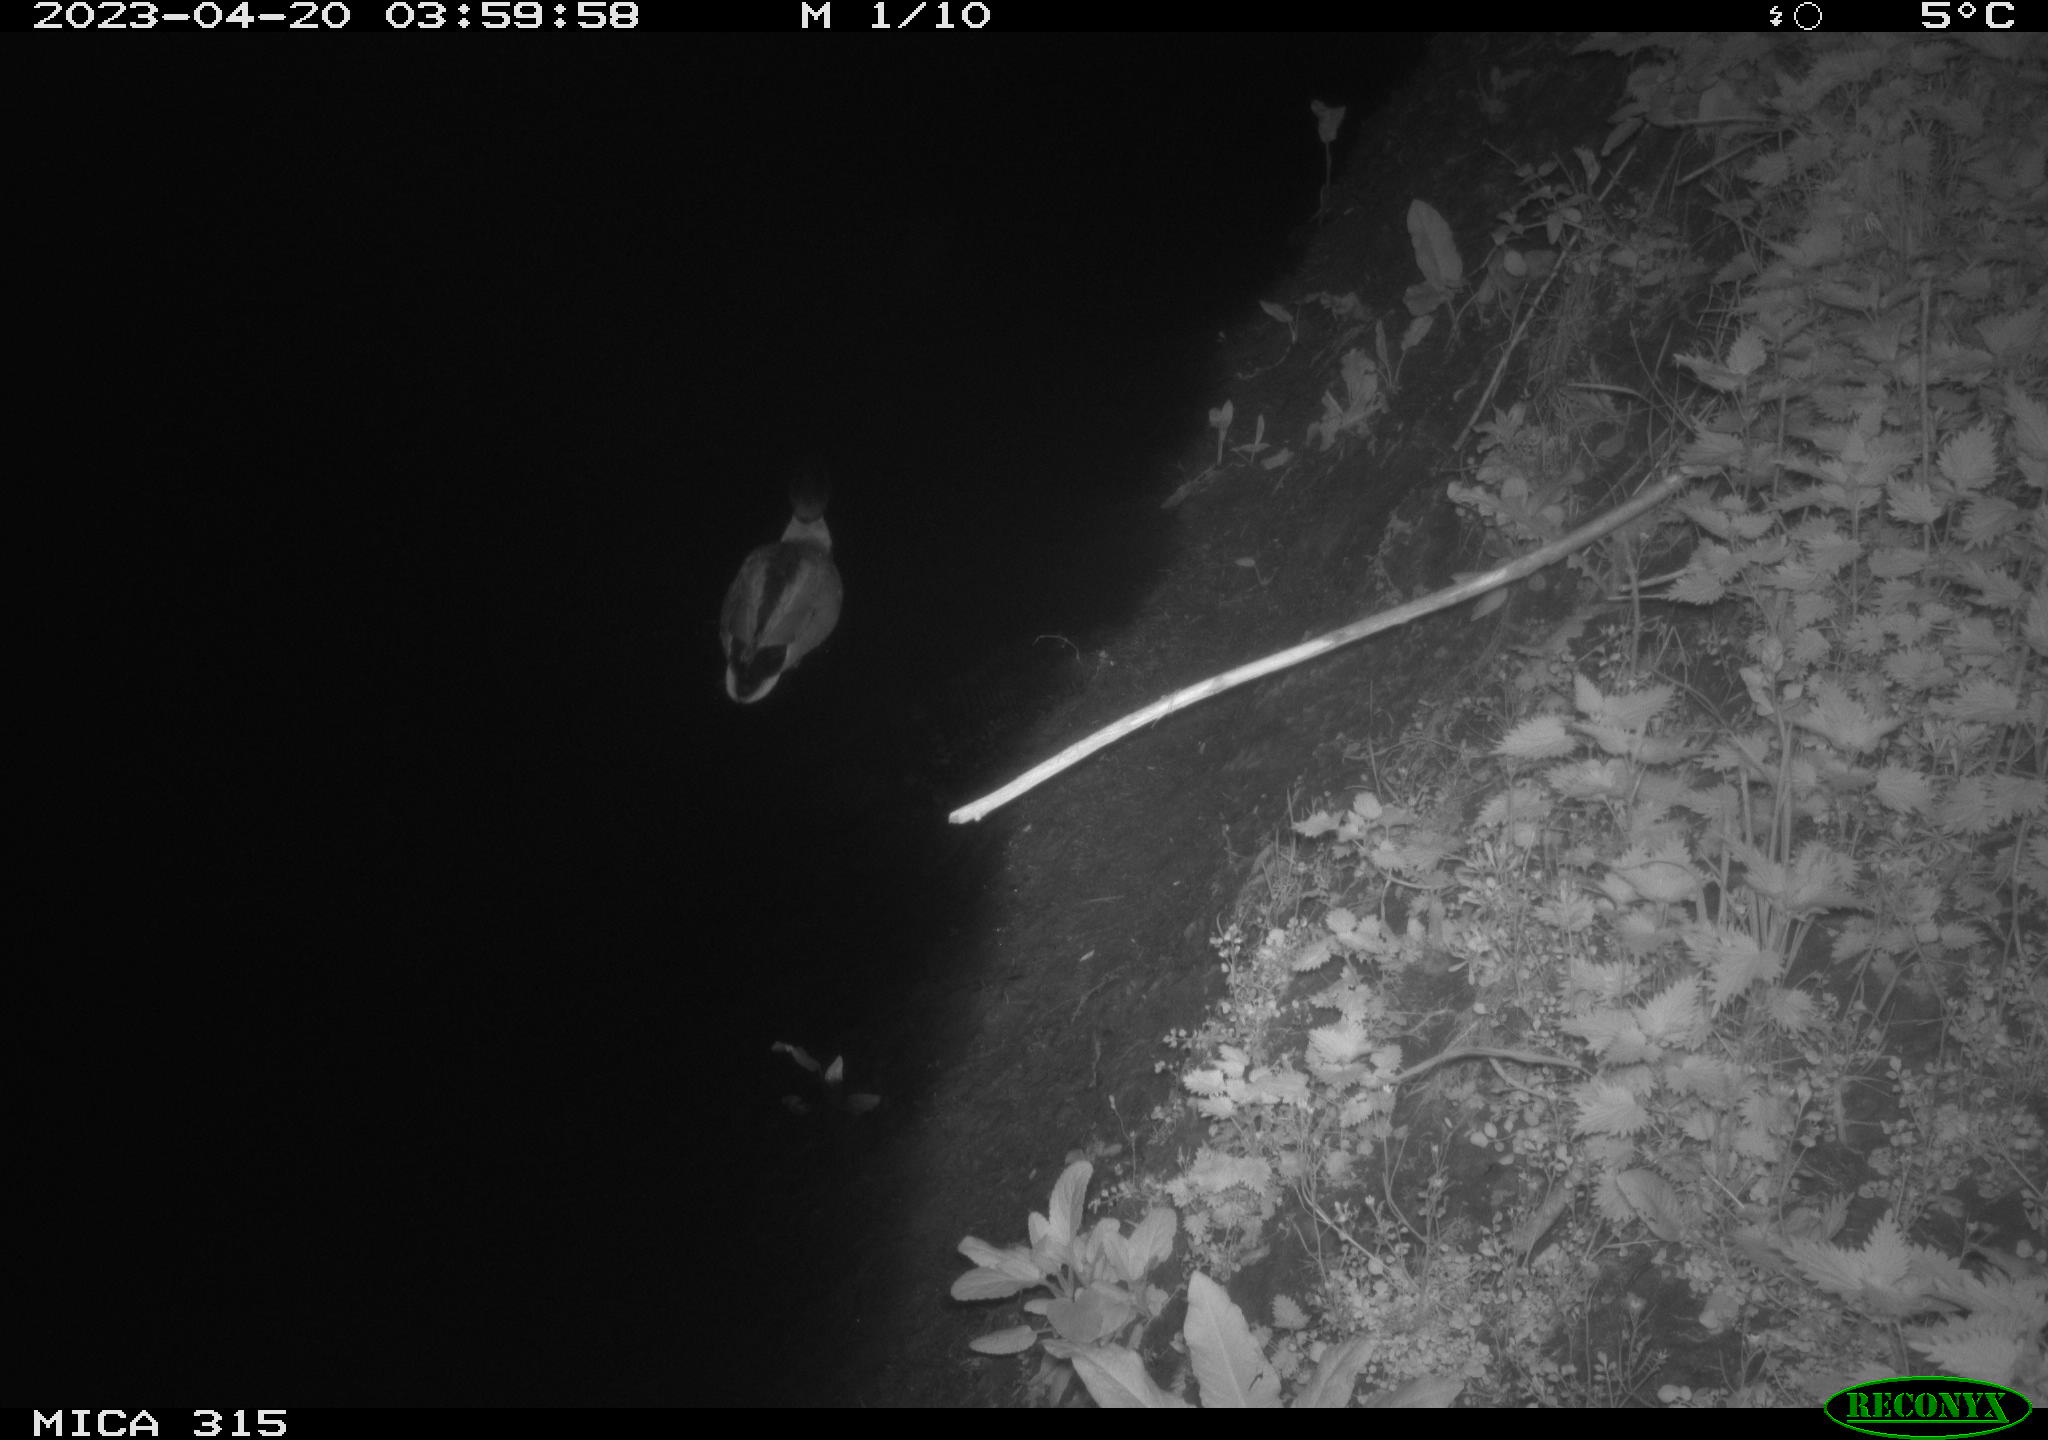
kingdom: Animalia
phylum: Chordata
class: Aves
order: Anseriformes
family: Anatidae
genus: Anas
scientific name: Anas
